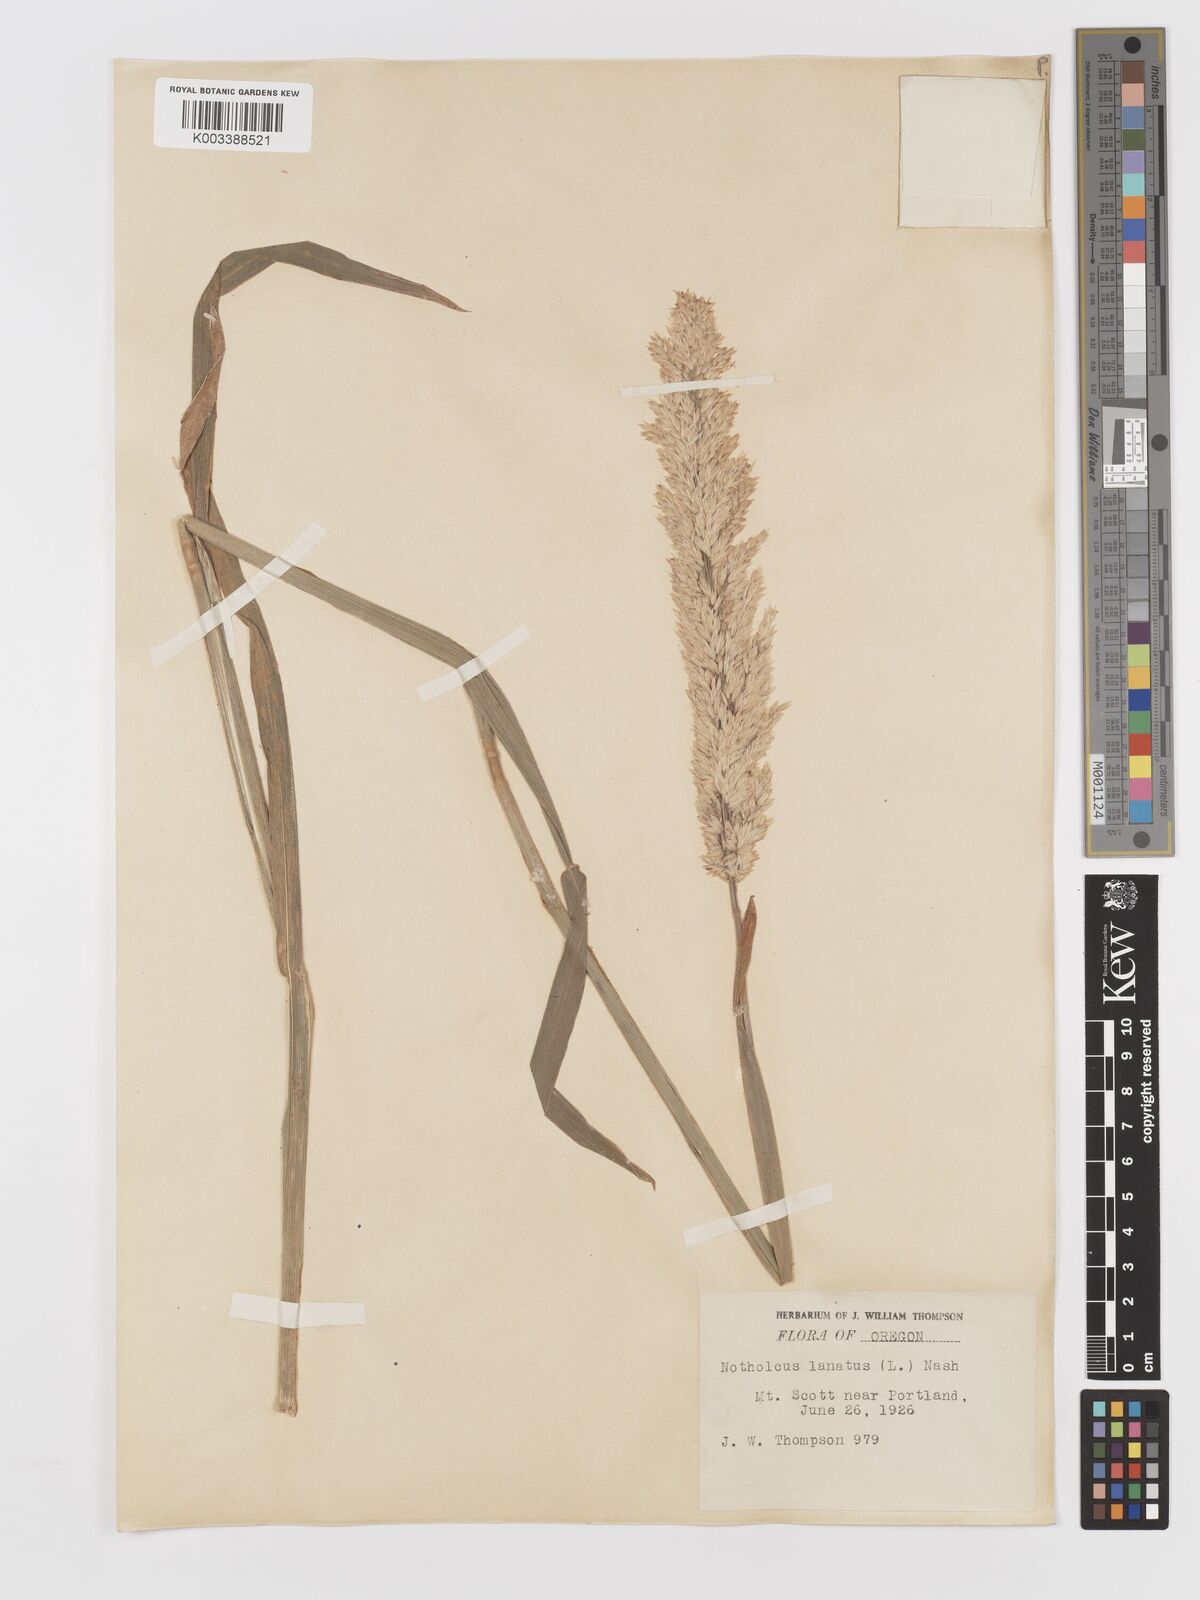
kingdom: Plantae
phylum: Tracheophyta
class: Liliopsida
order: Poales
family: Poaceae
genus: Holcus
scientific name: Holcus lanatus
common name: Yorkshire-fog
